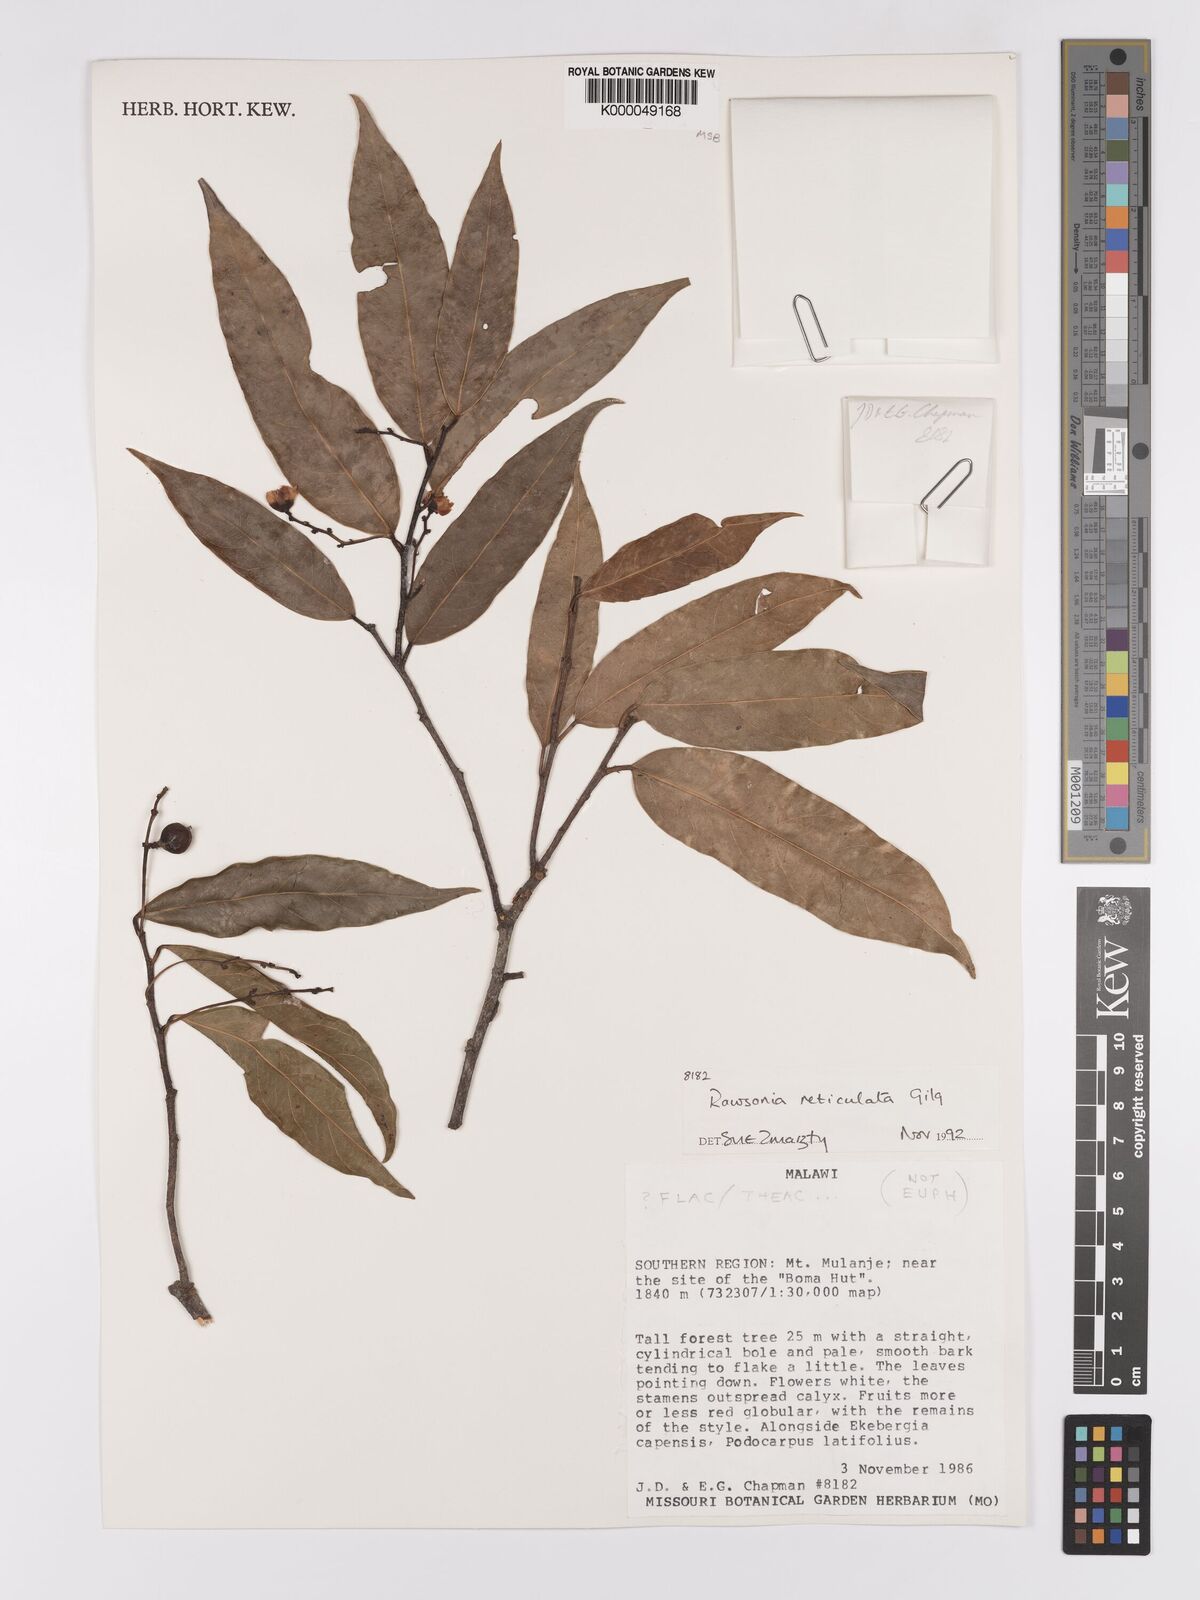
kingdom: Plantae
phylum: Tracheophyta
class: Magnoliopsida
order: Malpighiales
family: Achariaceae
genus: Rawsonia
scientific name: Rawsonia burtt-davyi
